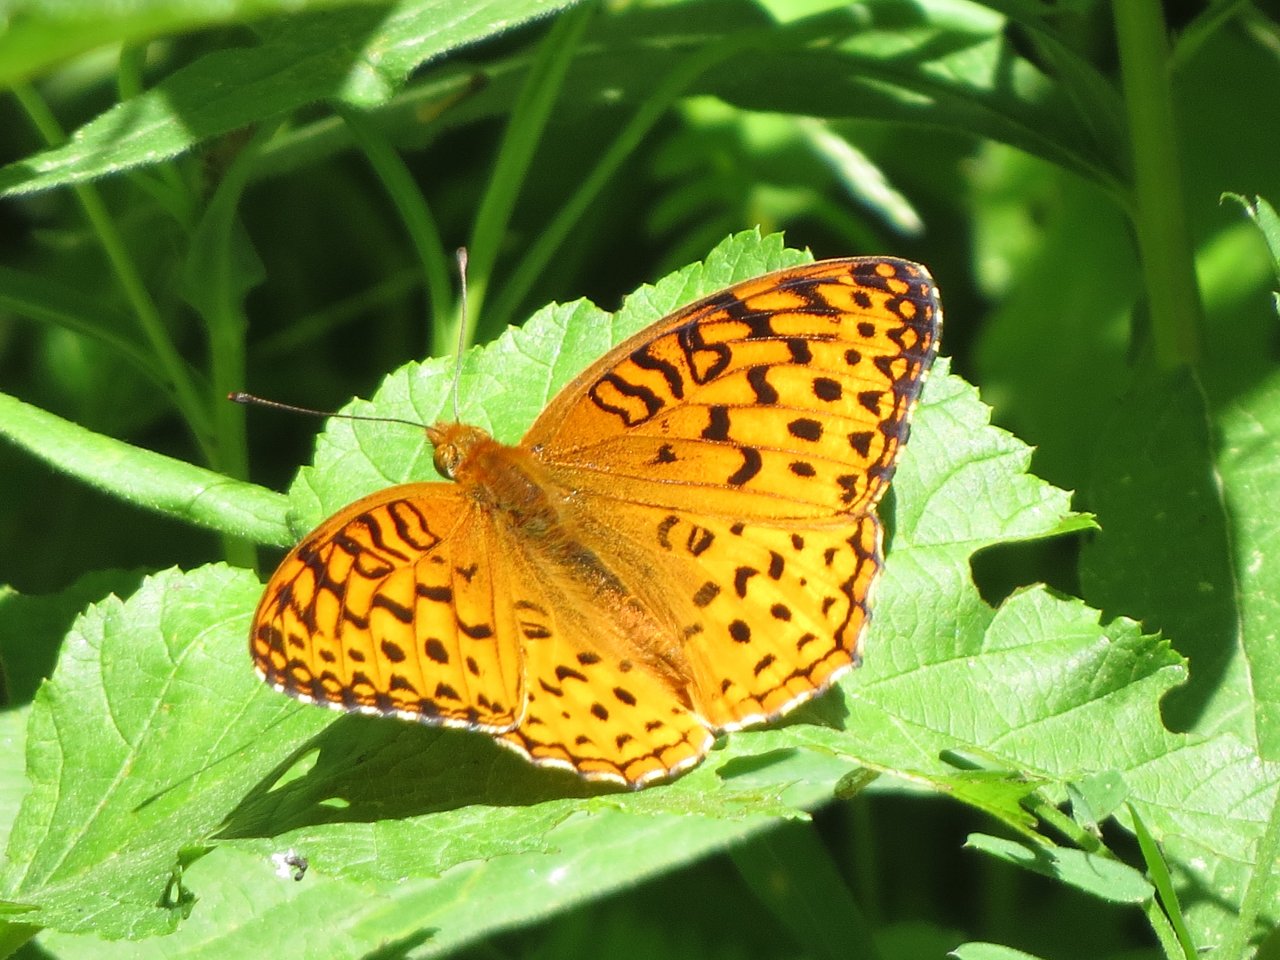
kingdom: Animalia
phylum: Arthropoda
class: Insecta
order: Lepidoptera
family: Nymphalidae
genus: Speyeria
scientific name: Speyeria
